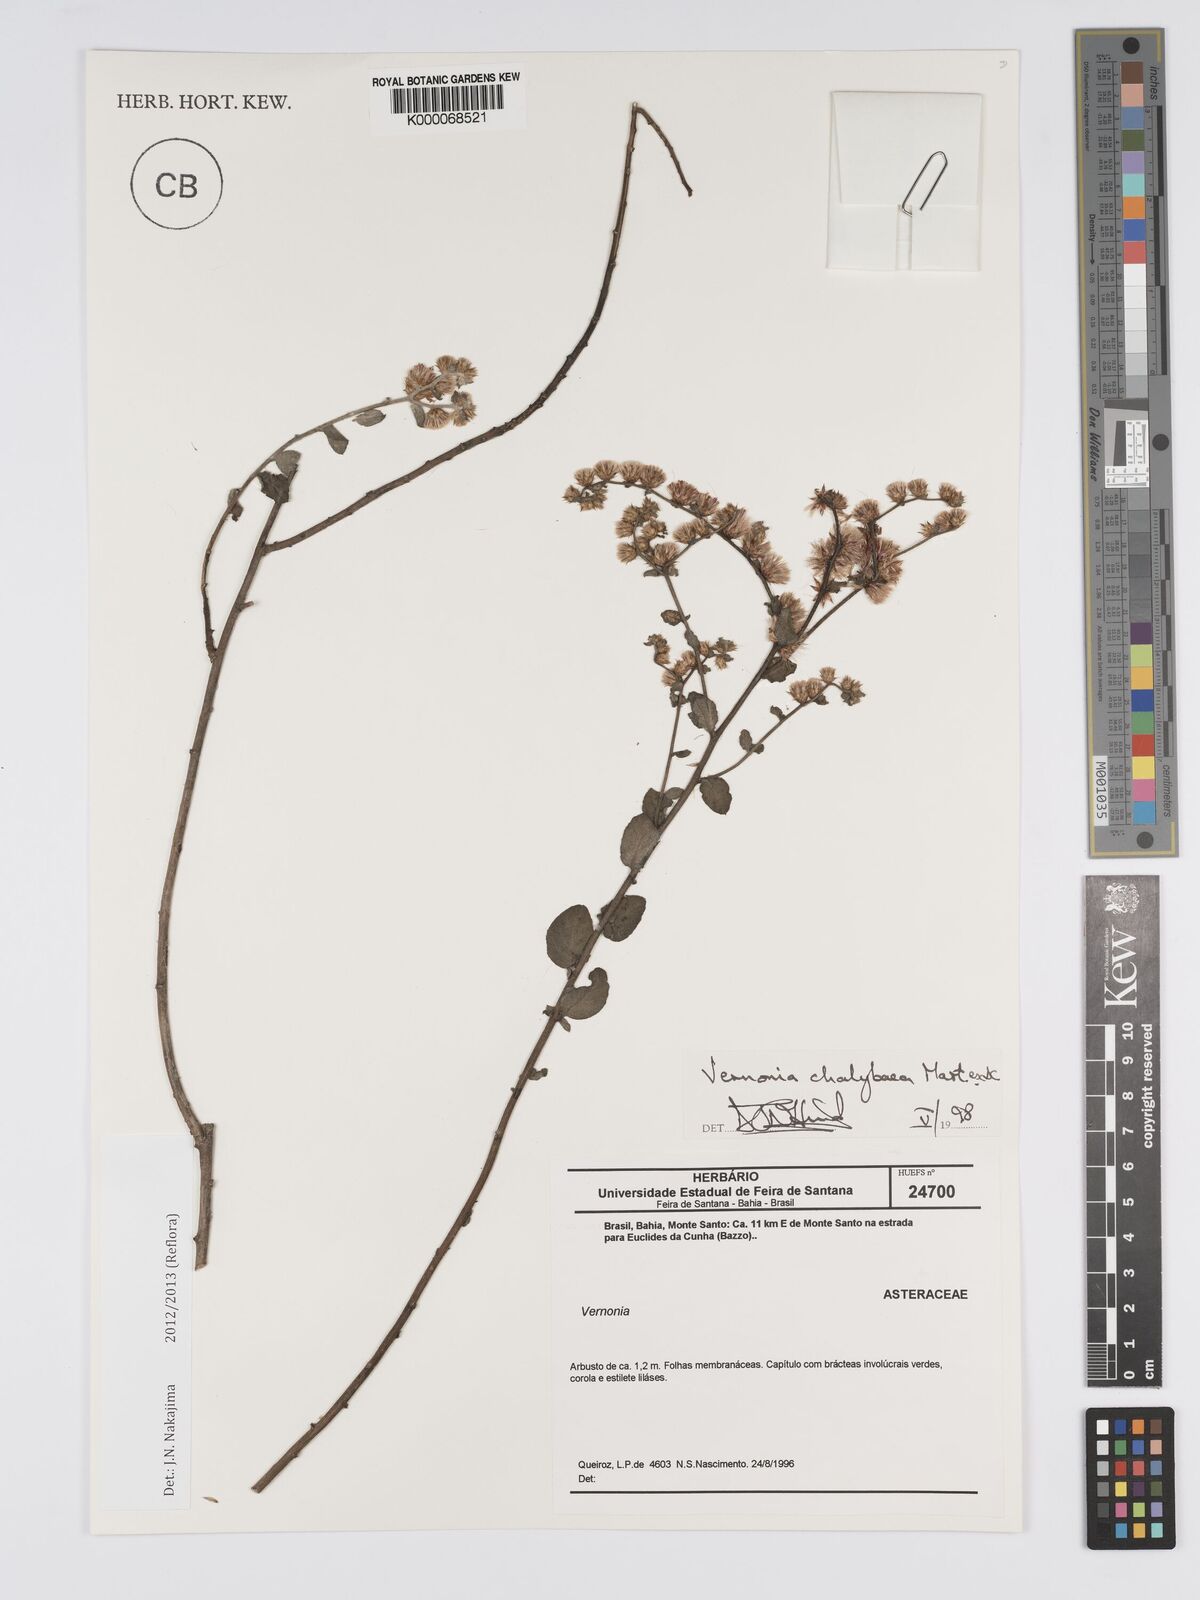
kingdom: Plantae
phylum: Tracheophyta
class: Magnoliopsida
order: Asterales
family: Asteraceae
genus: Lepidaploa
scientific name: Lepidaploa chalybaea
